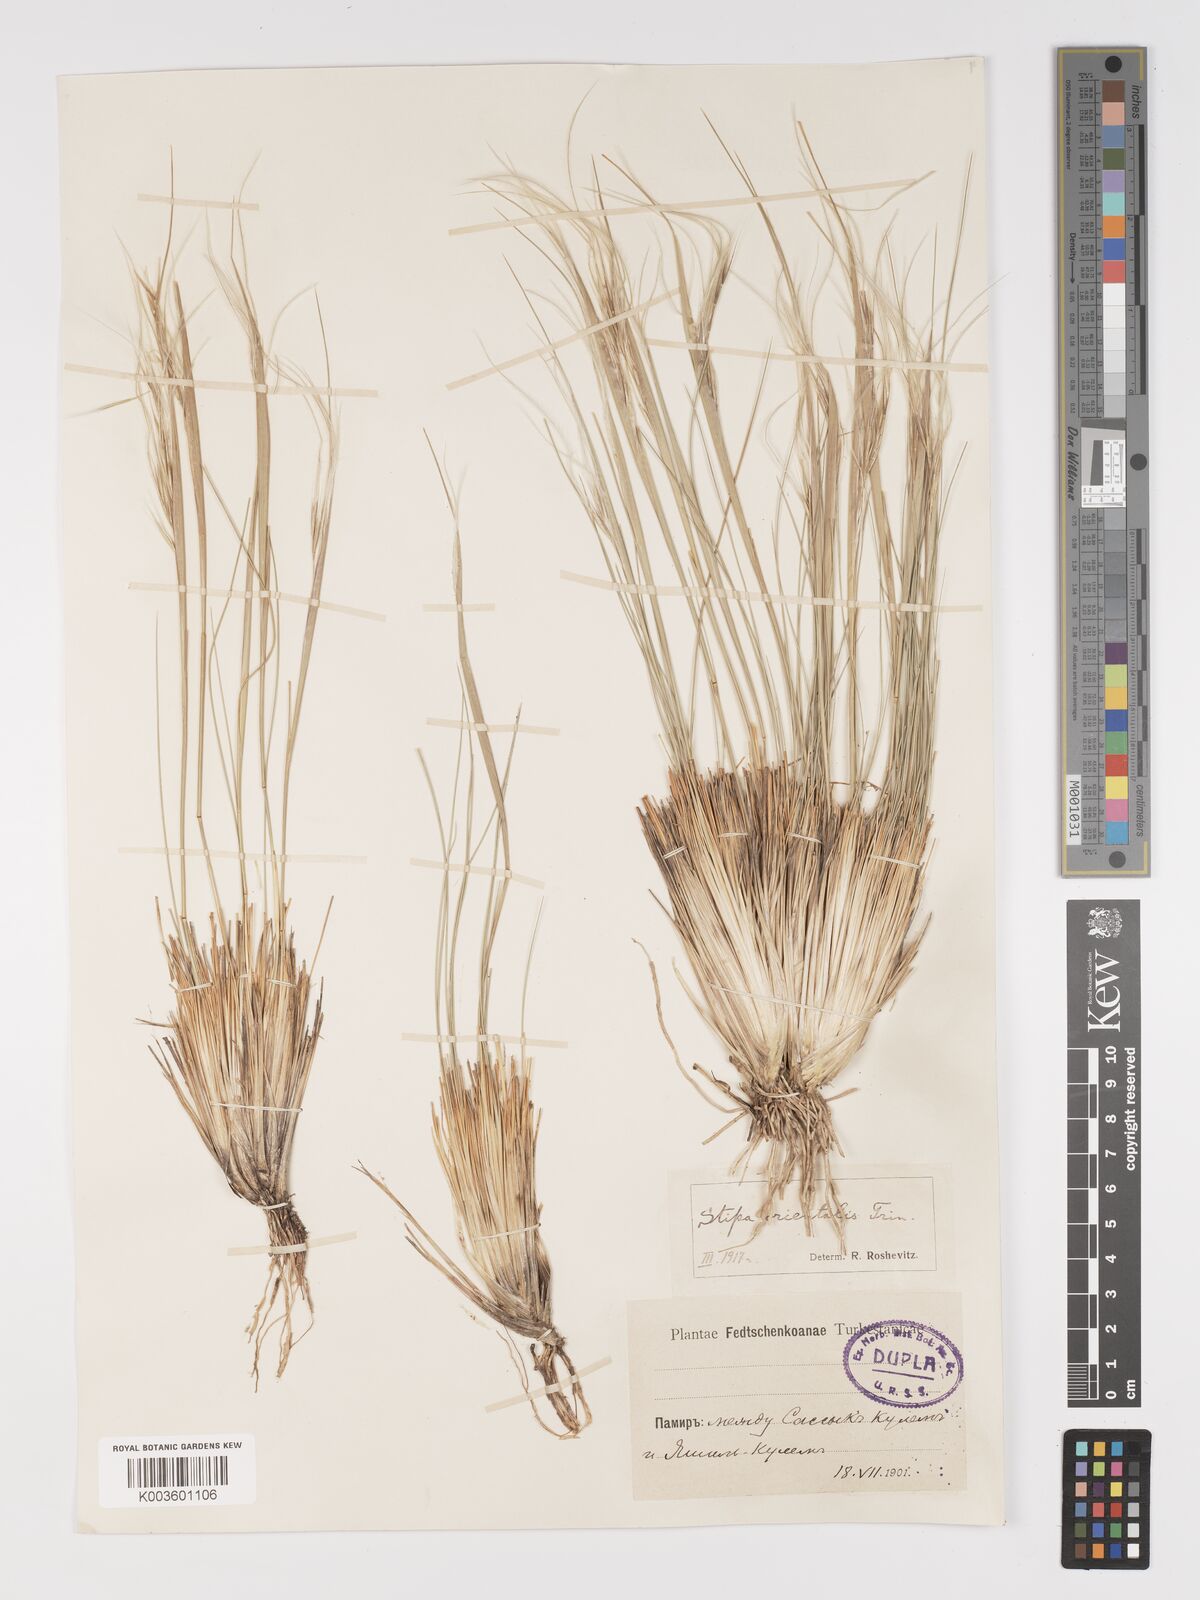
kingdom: Plantae
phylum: Tracheophyta
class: Liliopsida
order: Poales
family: Poaceae
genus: Stipa
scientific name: Stipa orientalis
